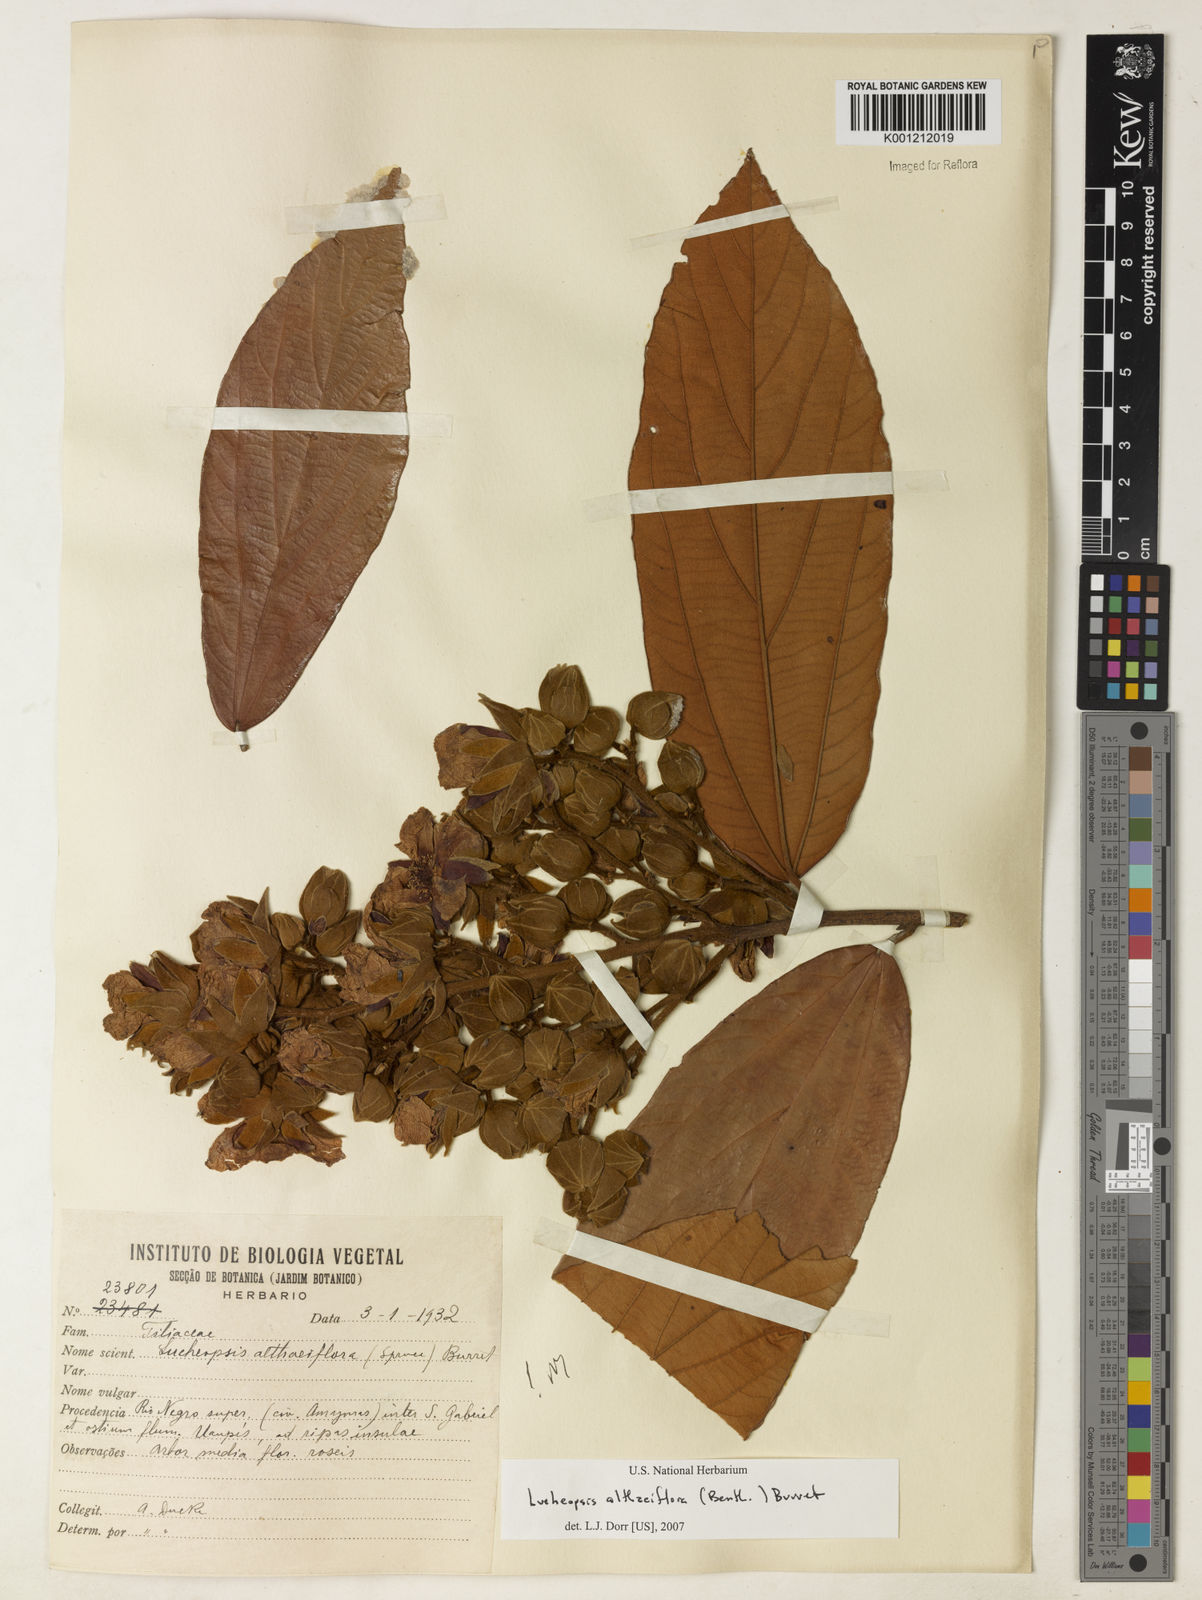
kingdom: Plantae
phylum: Tracheophyta
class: Magnoliopsida
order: Malvales
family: Malvaceae
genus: Lueheopsis
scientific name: Lueheopsis althaeiflora
